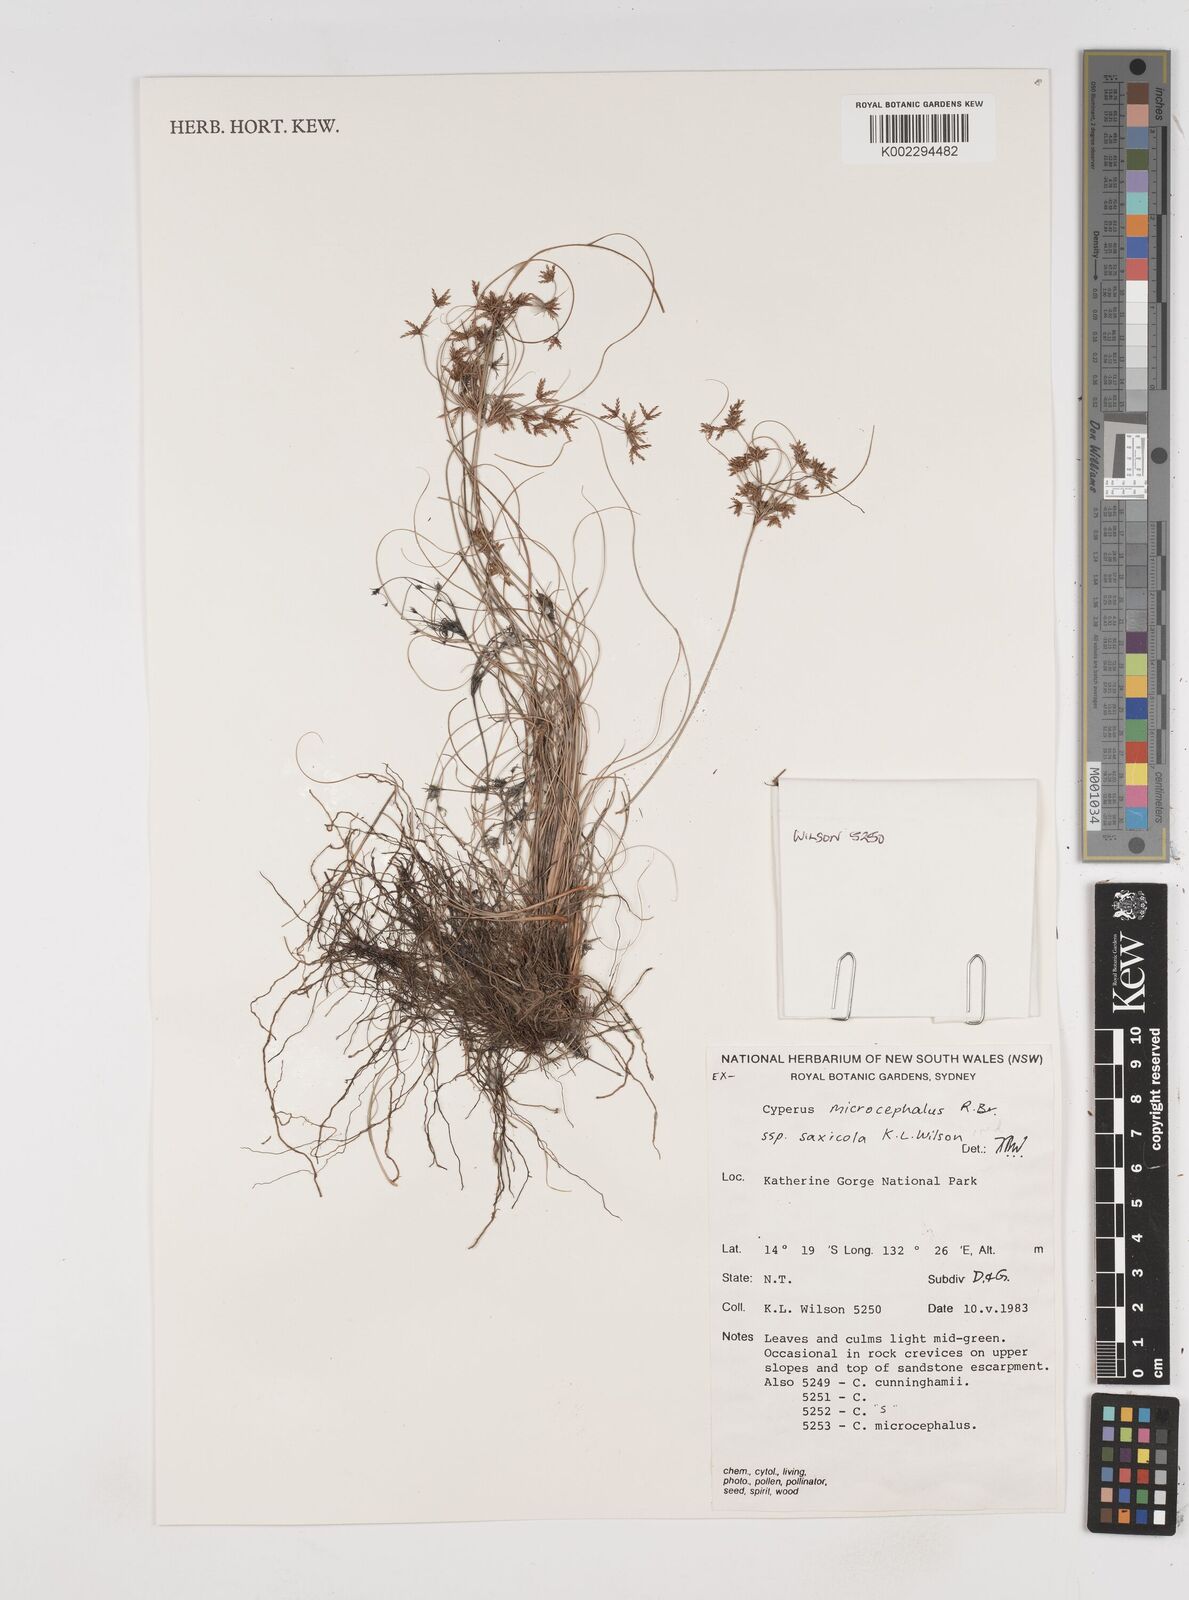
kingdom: Plantae
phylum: Tracheophyta
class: Liliopsida
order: Poales
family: Cyperaceae
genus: Cyperus
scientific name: Cyperus microcephalus
